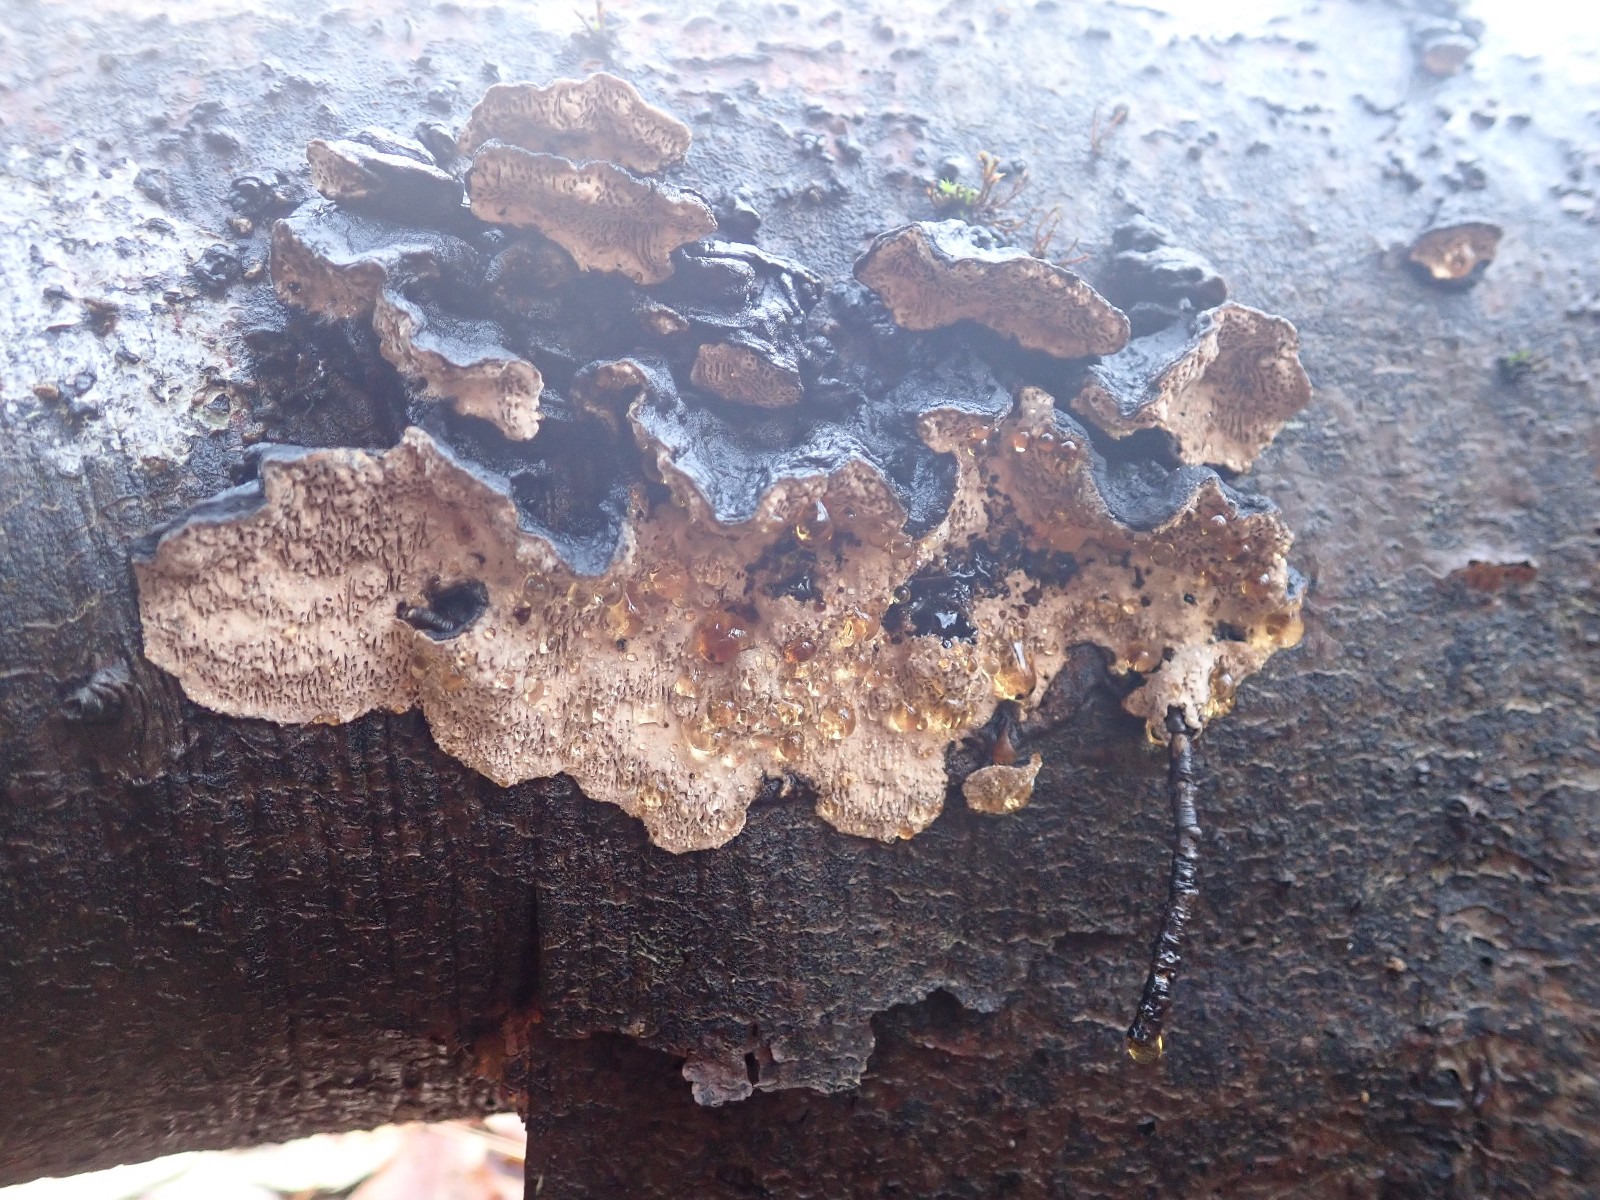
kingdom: Fungi
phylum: Basidiomycota
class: Agaricomycetes
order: Polyporales
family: Polyporaceae
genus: Podofomes
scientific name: Podofomes mollis
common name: blød begporesvamp
